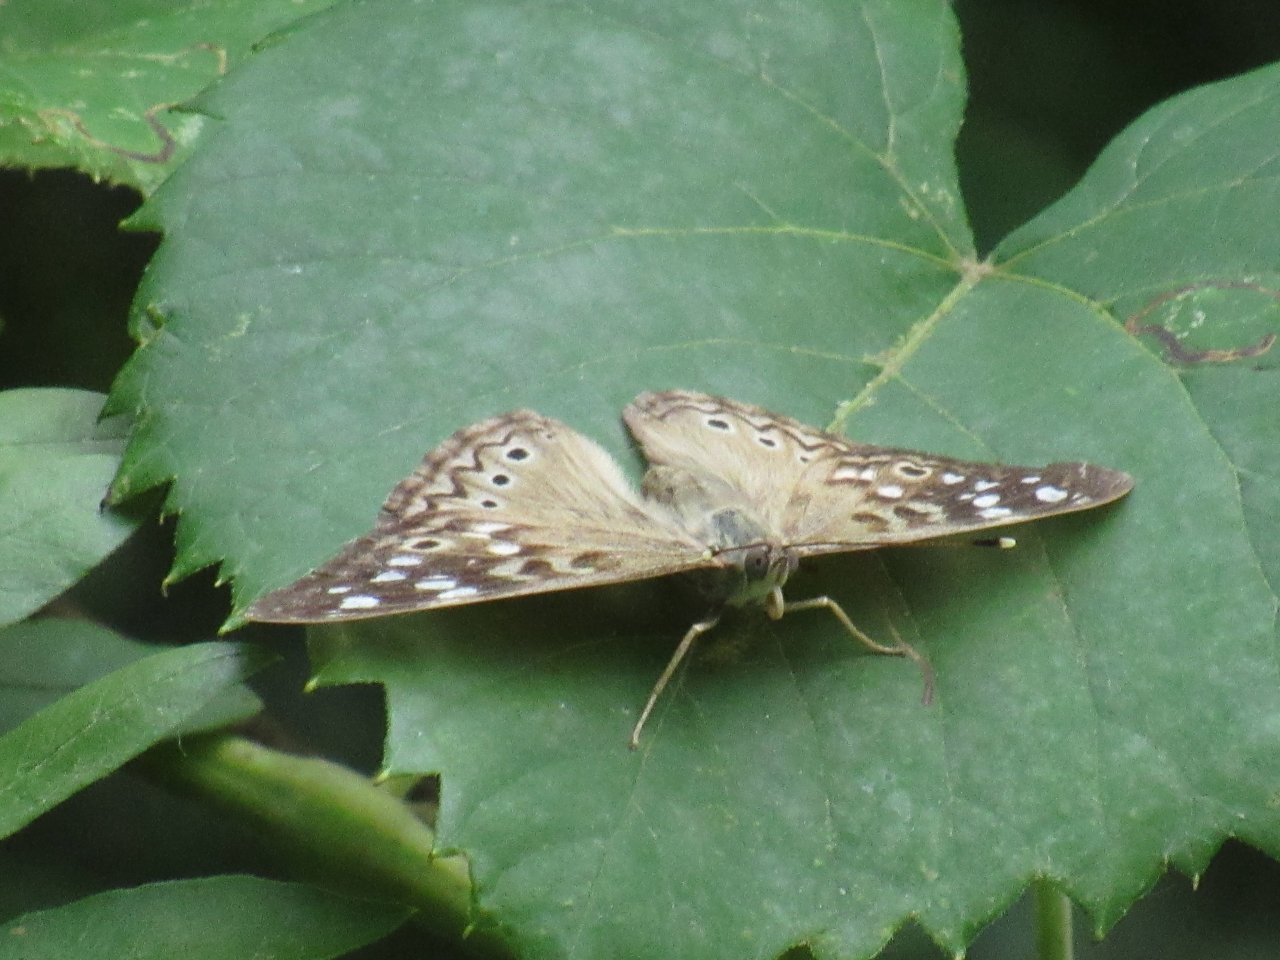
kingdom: Animalia
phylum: Arthropoda
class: Insecta
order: Lepidoptera
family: Nymphalidae
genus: Asterocampa
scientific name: Asterocampa celtis
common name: Hackberry Emperor
